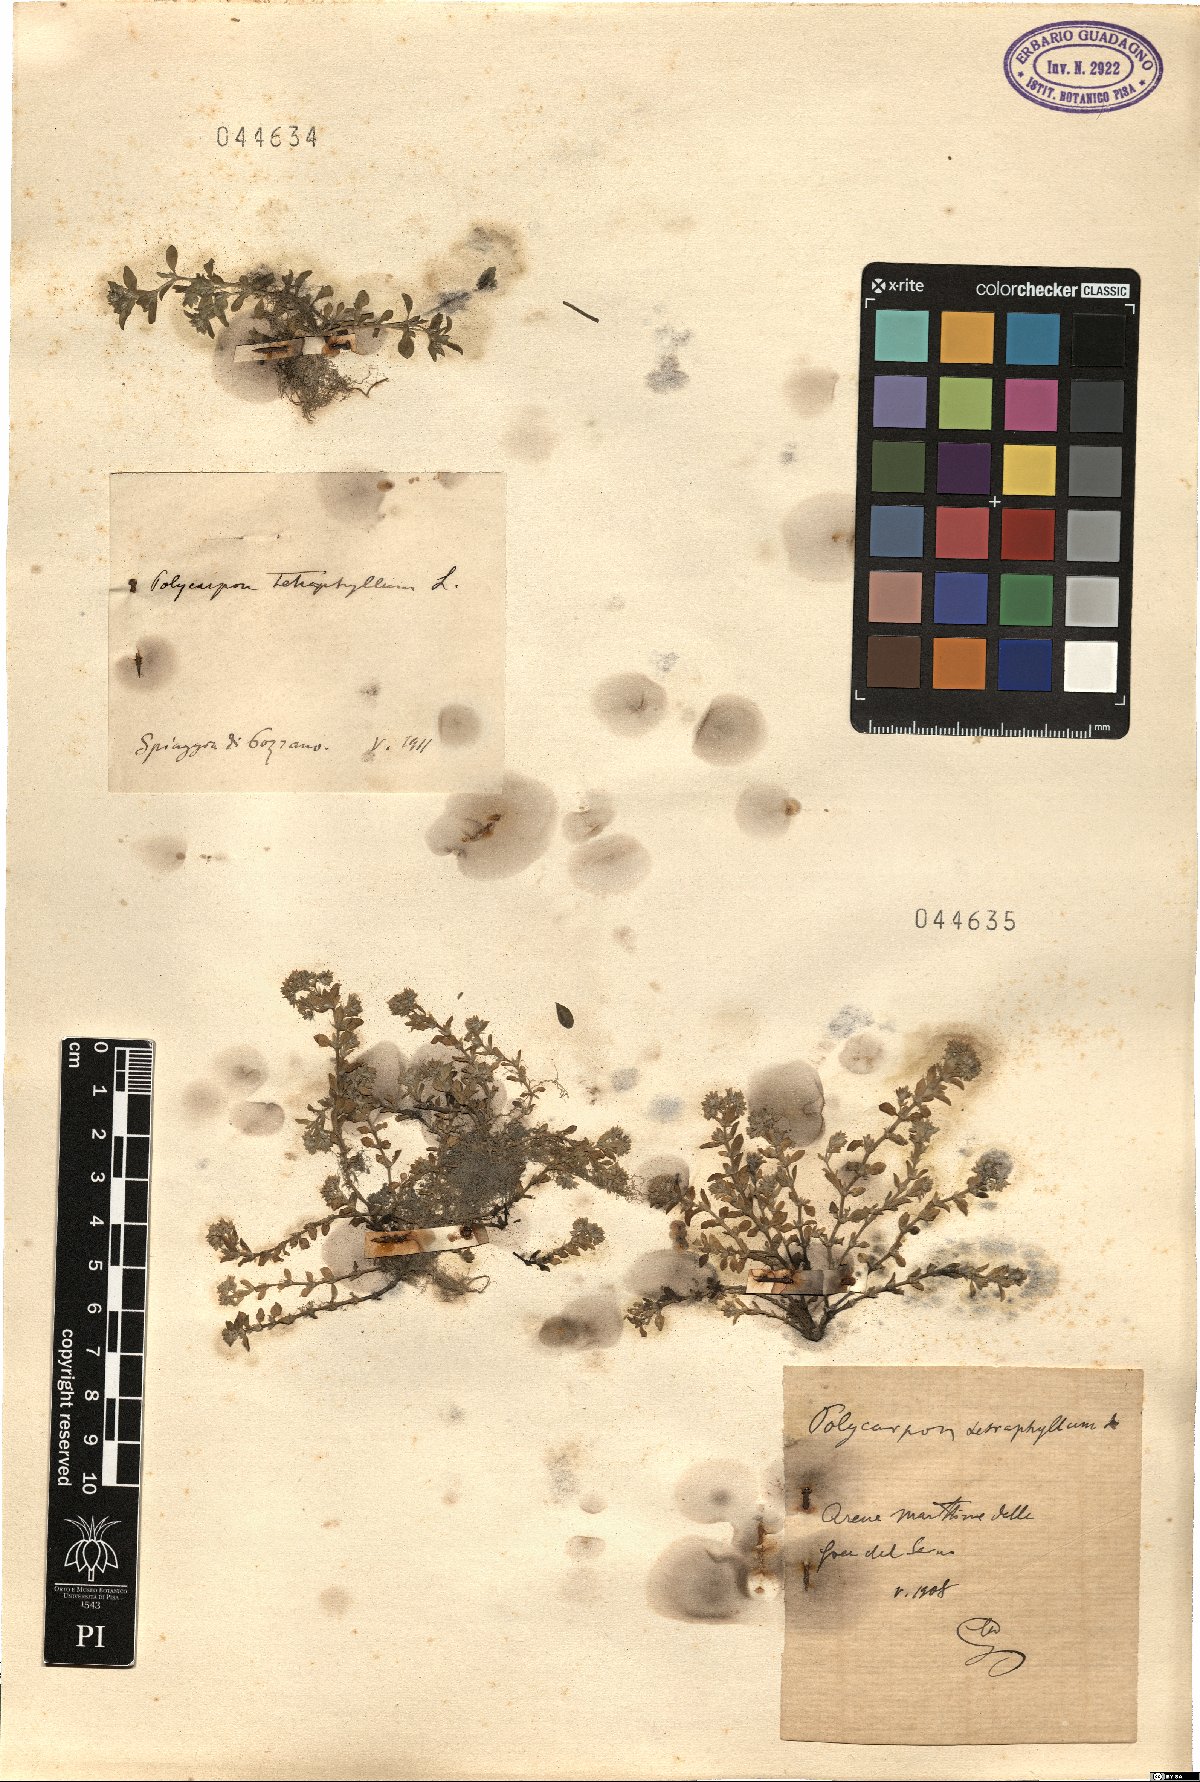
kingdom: Plantae
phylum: Tracheophyta
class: Magnoliopsida
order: Caryophyllales
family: Caryophyllaceae
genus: Polycarpon
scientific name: Polycarpon tetraphyllum
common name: Four-leaved all-seed
